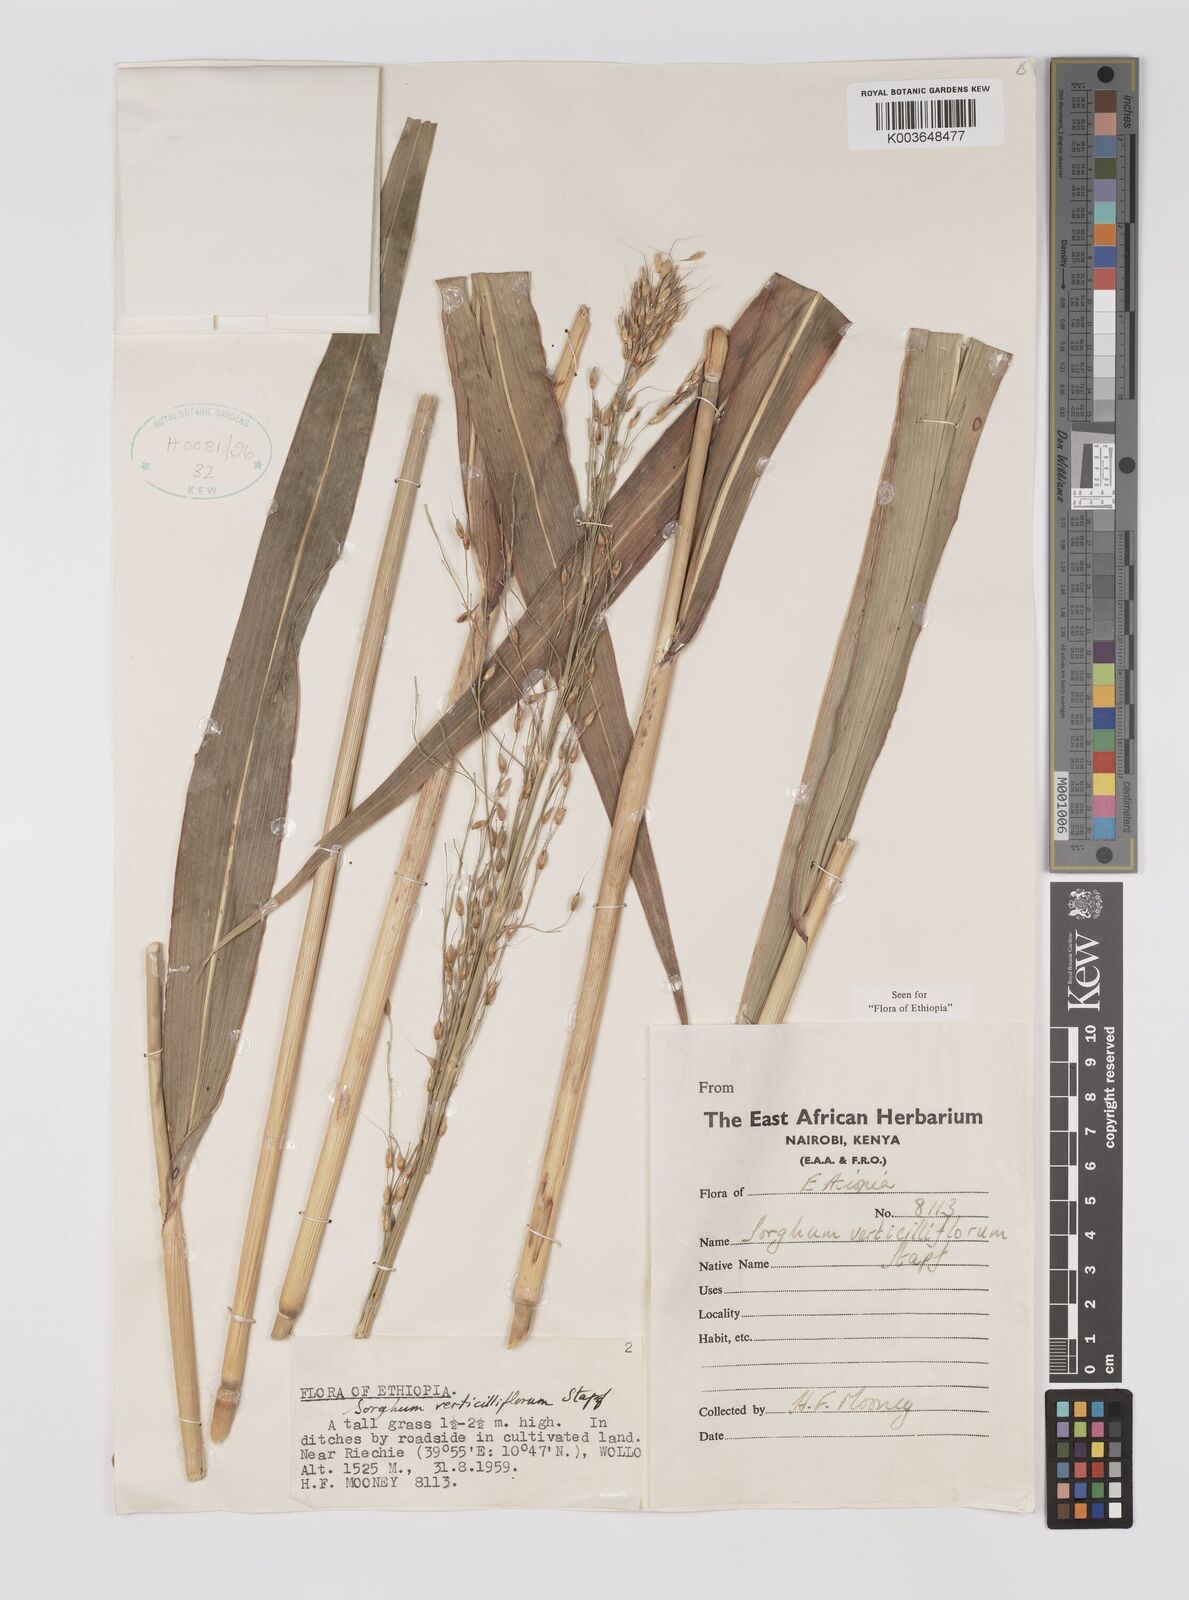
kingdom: Plantae
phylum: Tracheophyta
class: Liliopsida
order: Poales
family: Poaceae
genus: Sorghum
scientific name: Sorghum arundinaceum
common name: Sorghum
